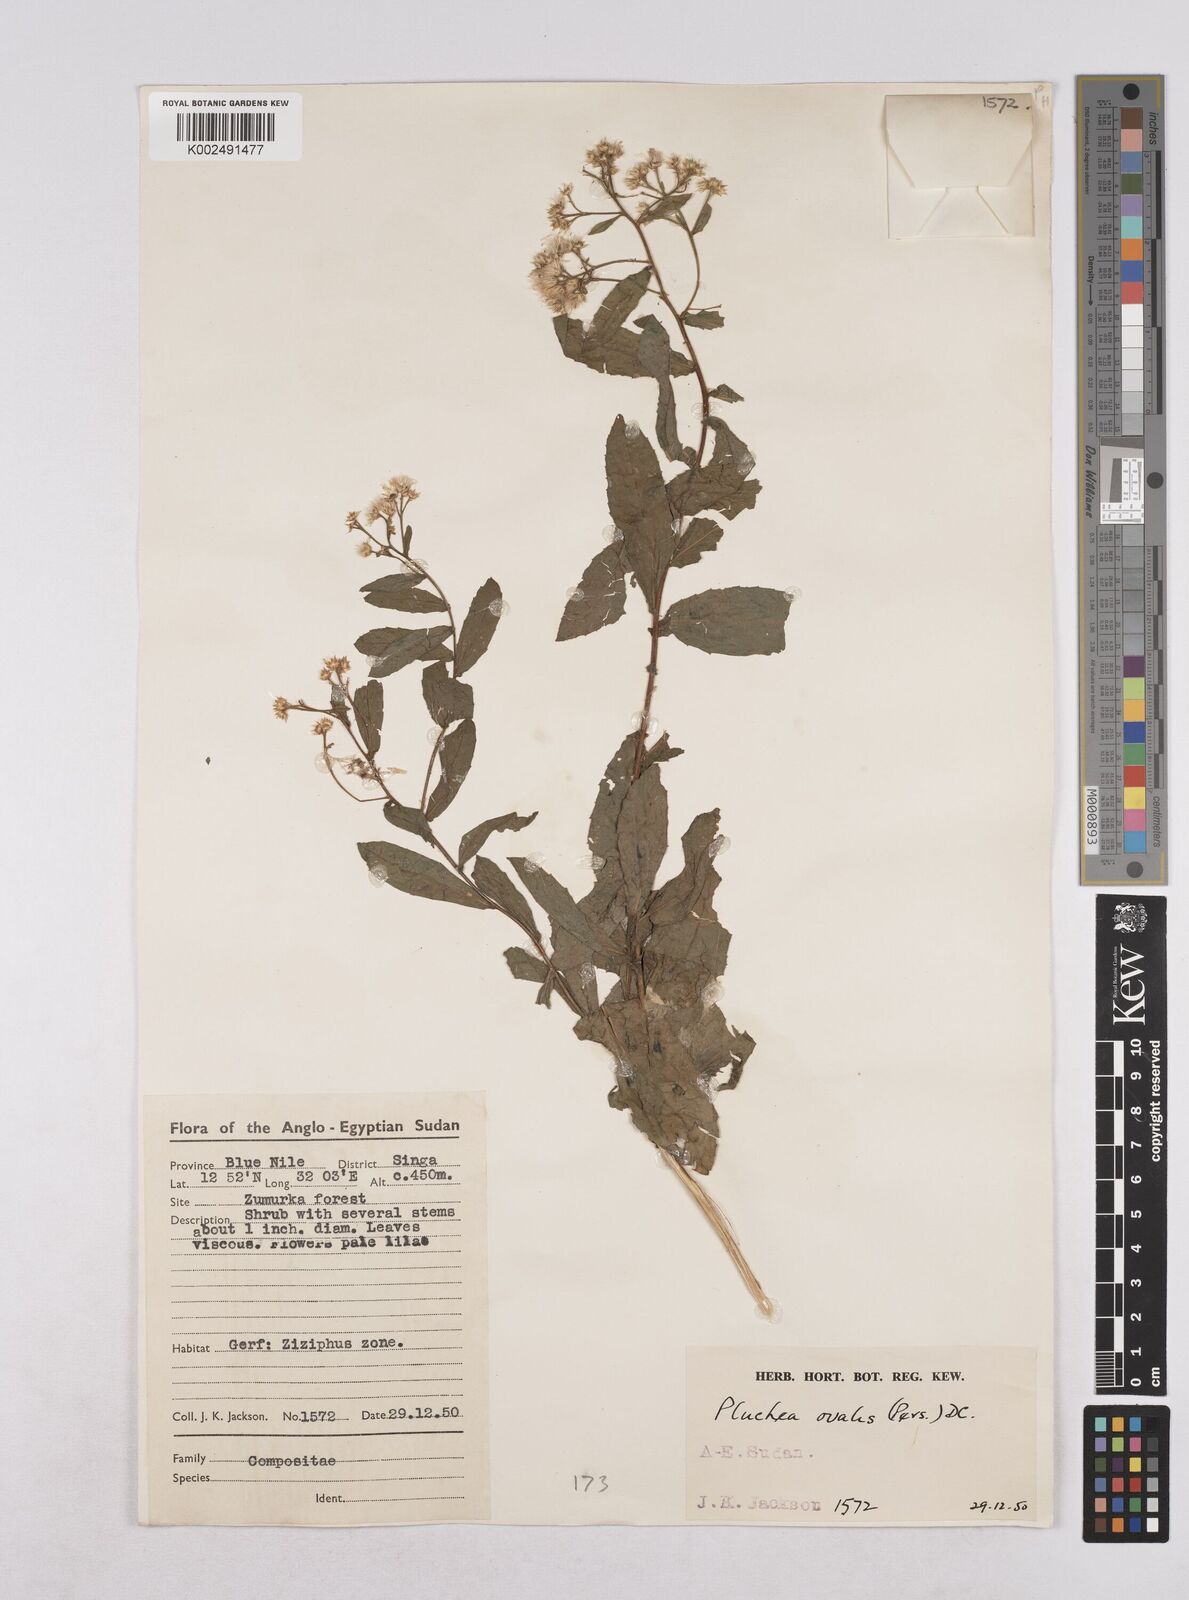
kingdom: Plantae
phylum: Tracheophyta
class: Magnoliopsida
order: Asterales
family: Asteraceae
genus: Pluchea
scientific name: Pluchea dioscoridis
